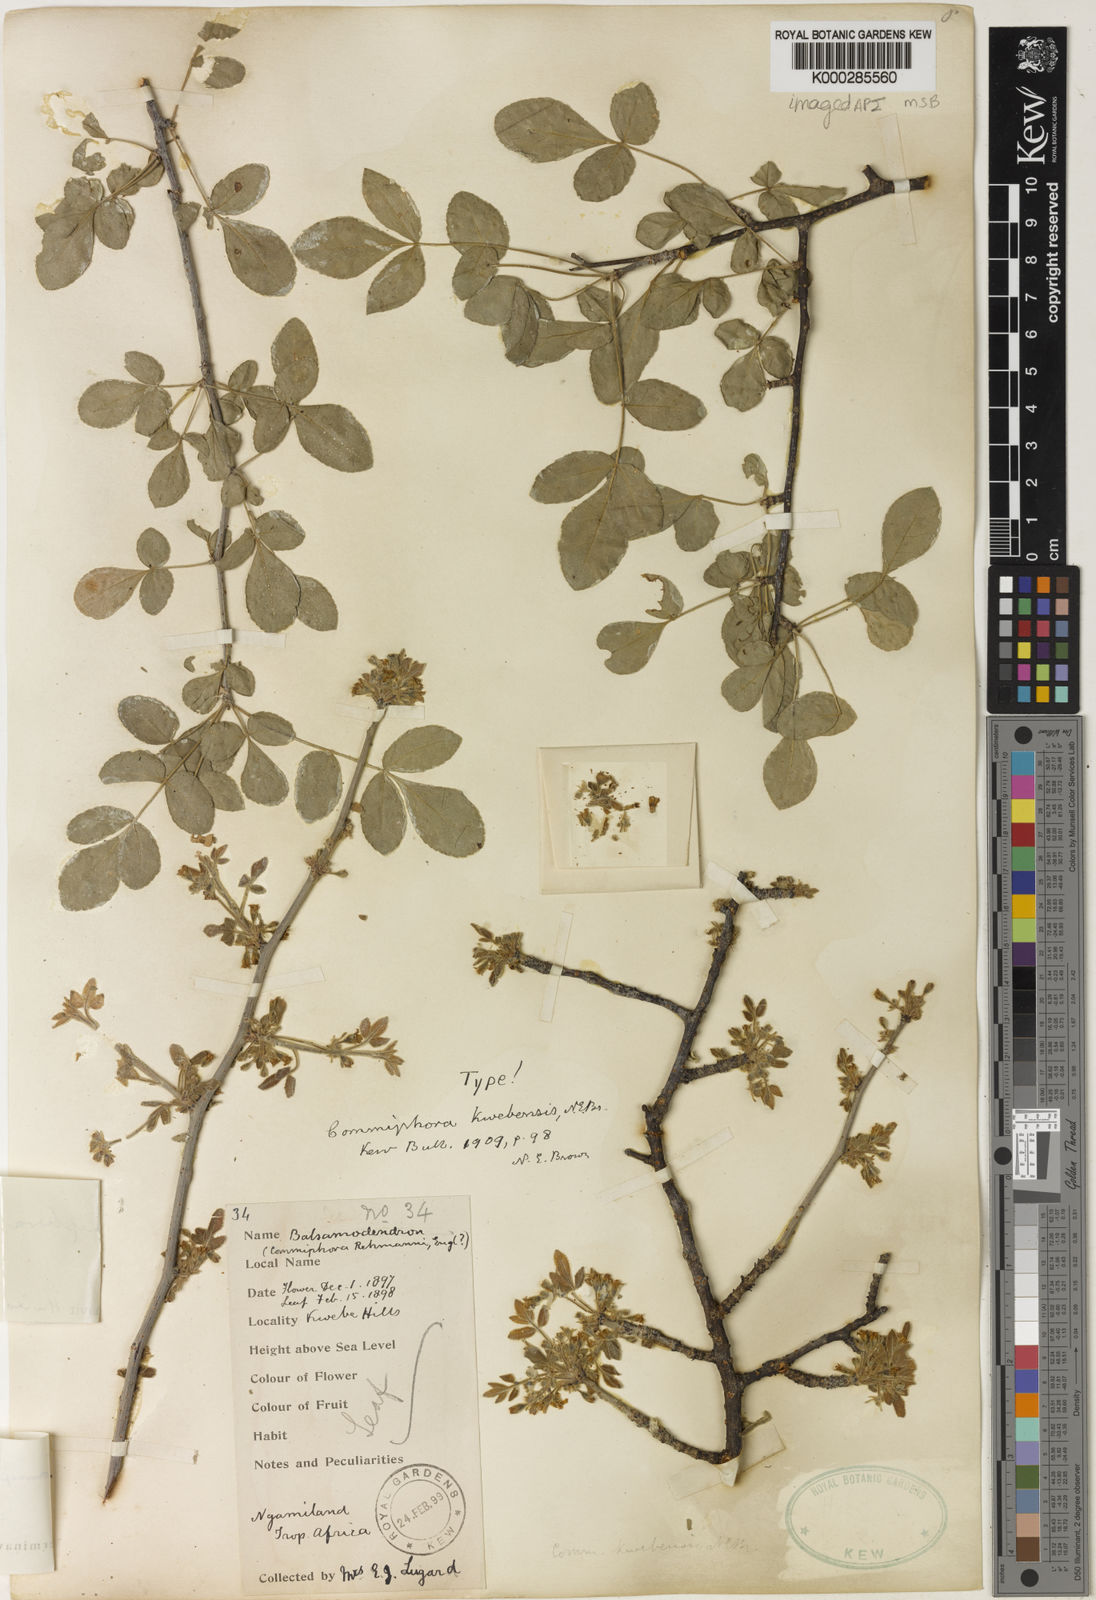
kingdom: Plantae
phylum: Tracheophyta
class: Magnoliopsida
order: Sapindales
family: Burseraceae
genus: Commiphora
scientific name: Commiphora angolensis
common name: Poison-grub
